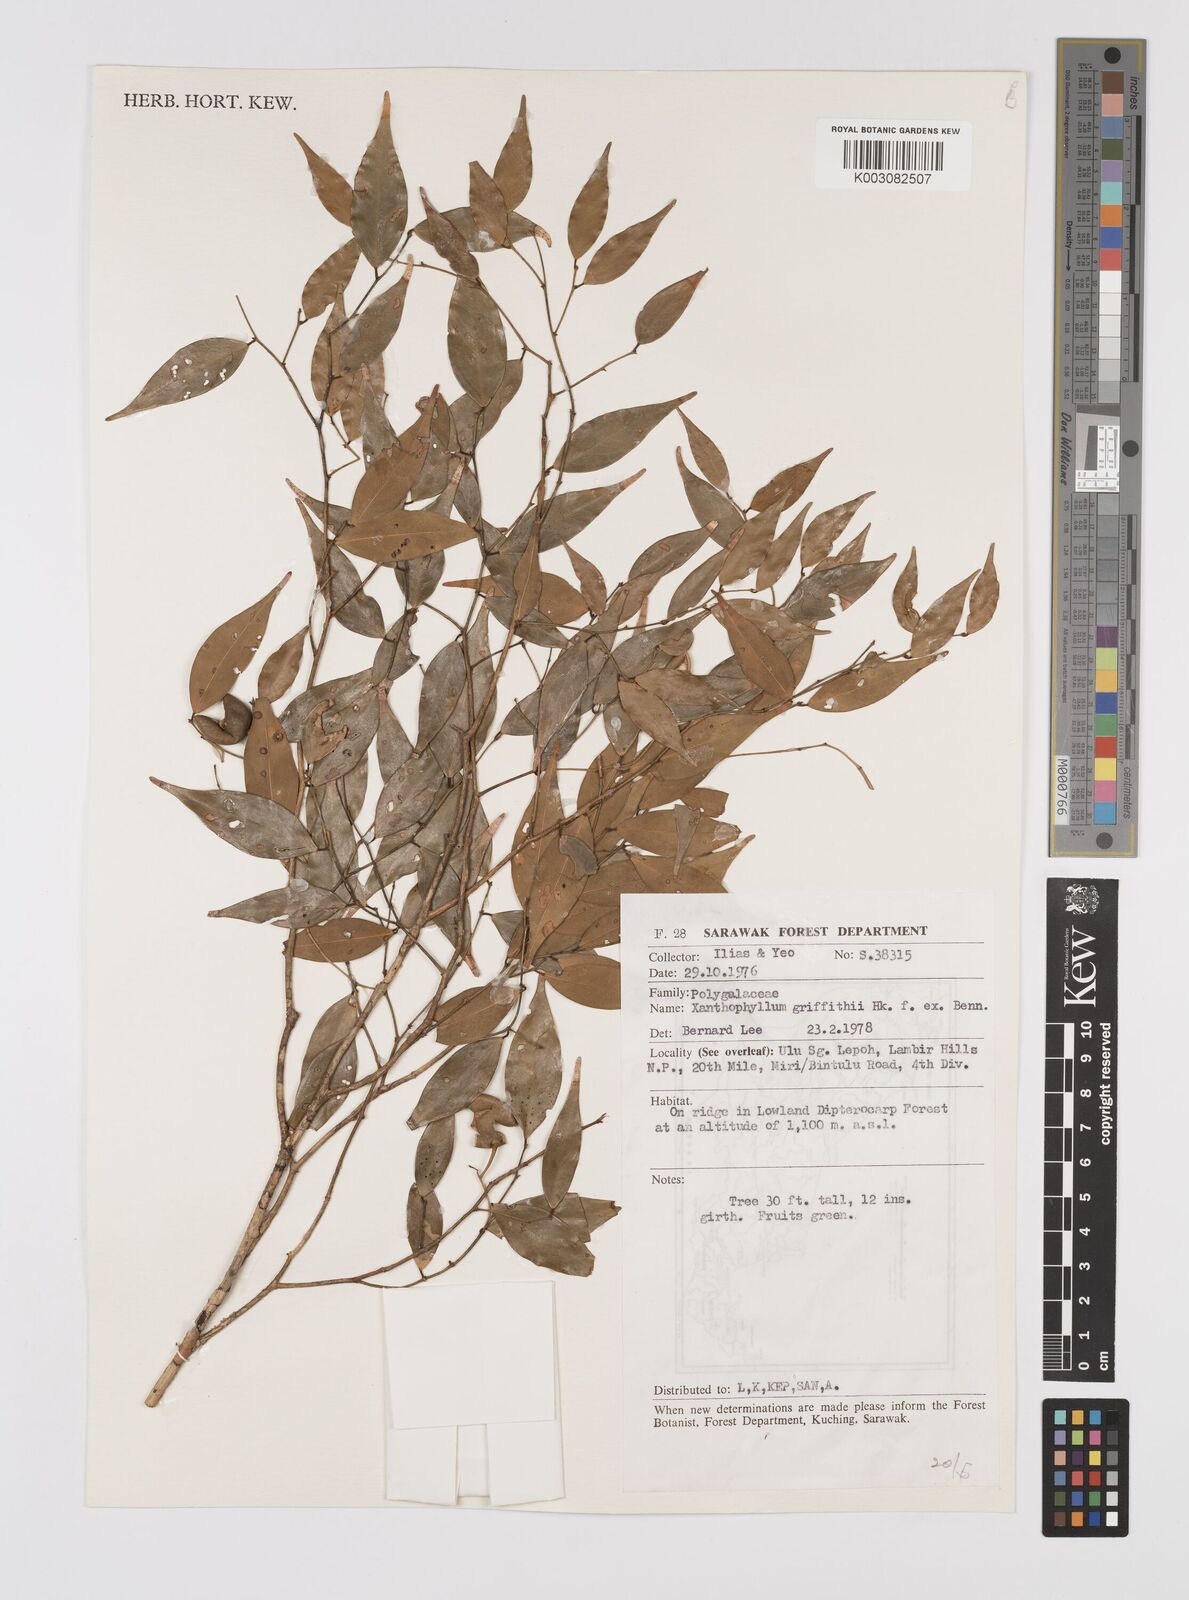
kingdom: Plantae
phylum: Tracheophyta
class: Magnoliopsida
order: Fabales
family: Polygalaceae
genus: Xanthophyllum
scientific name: Xanthophyllum griffithii
